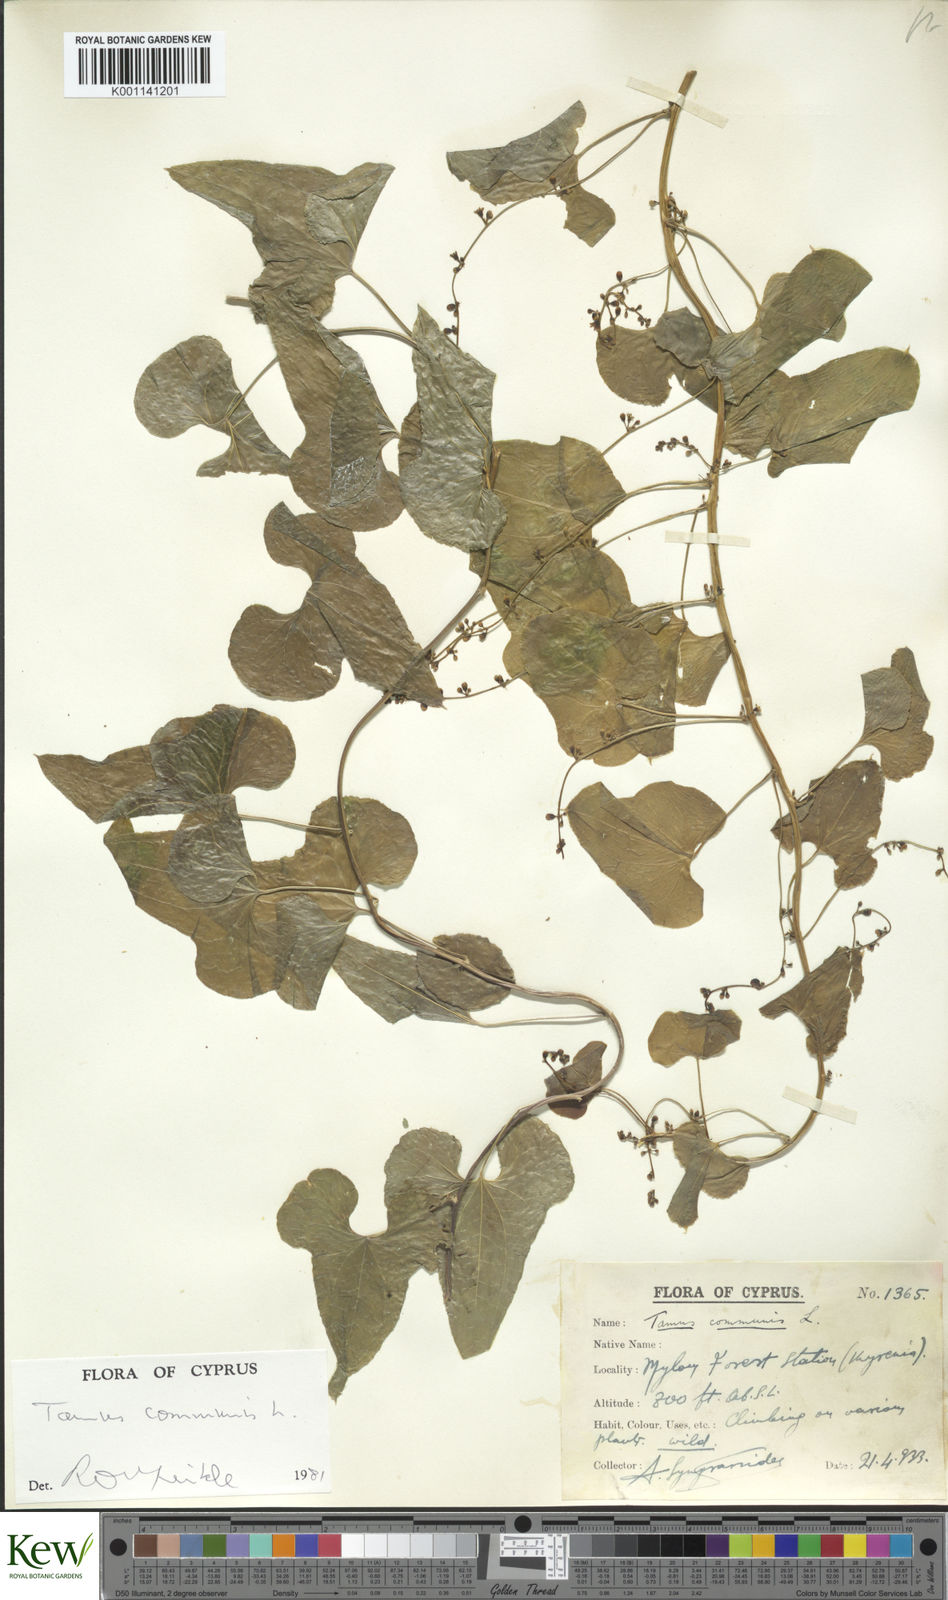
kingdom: Plantae
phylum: Tracheophyta
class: Liliopsida
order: Dioscoreales
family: Dioscoreaceae
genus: Dioscorea
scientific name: Dioscorea communis
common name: Black-bindweed
